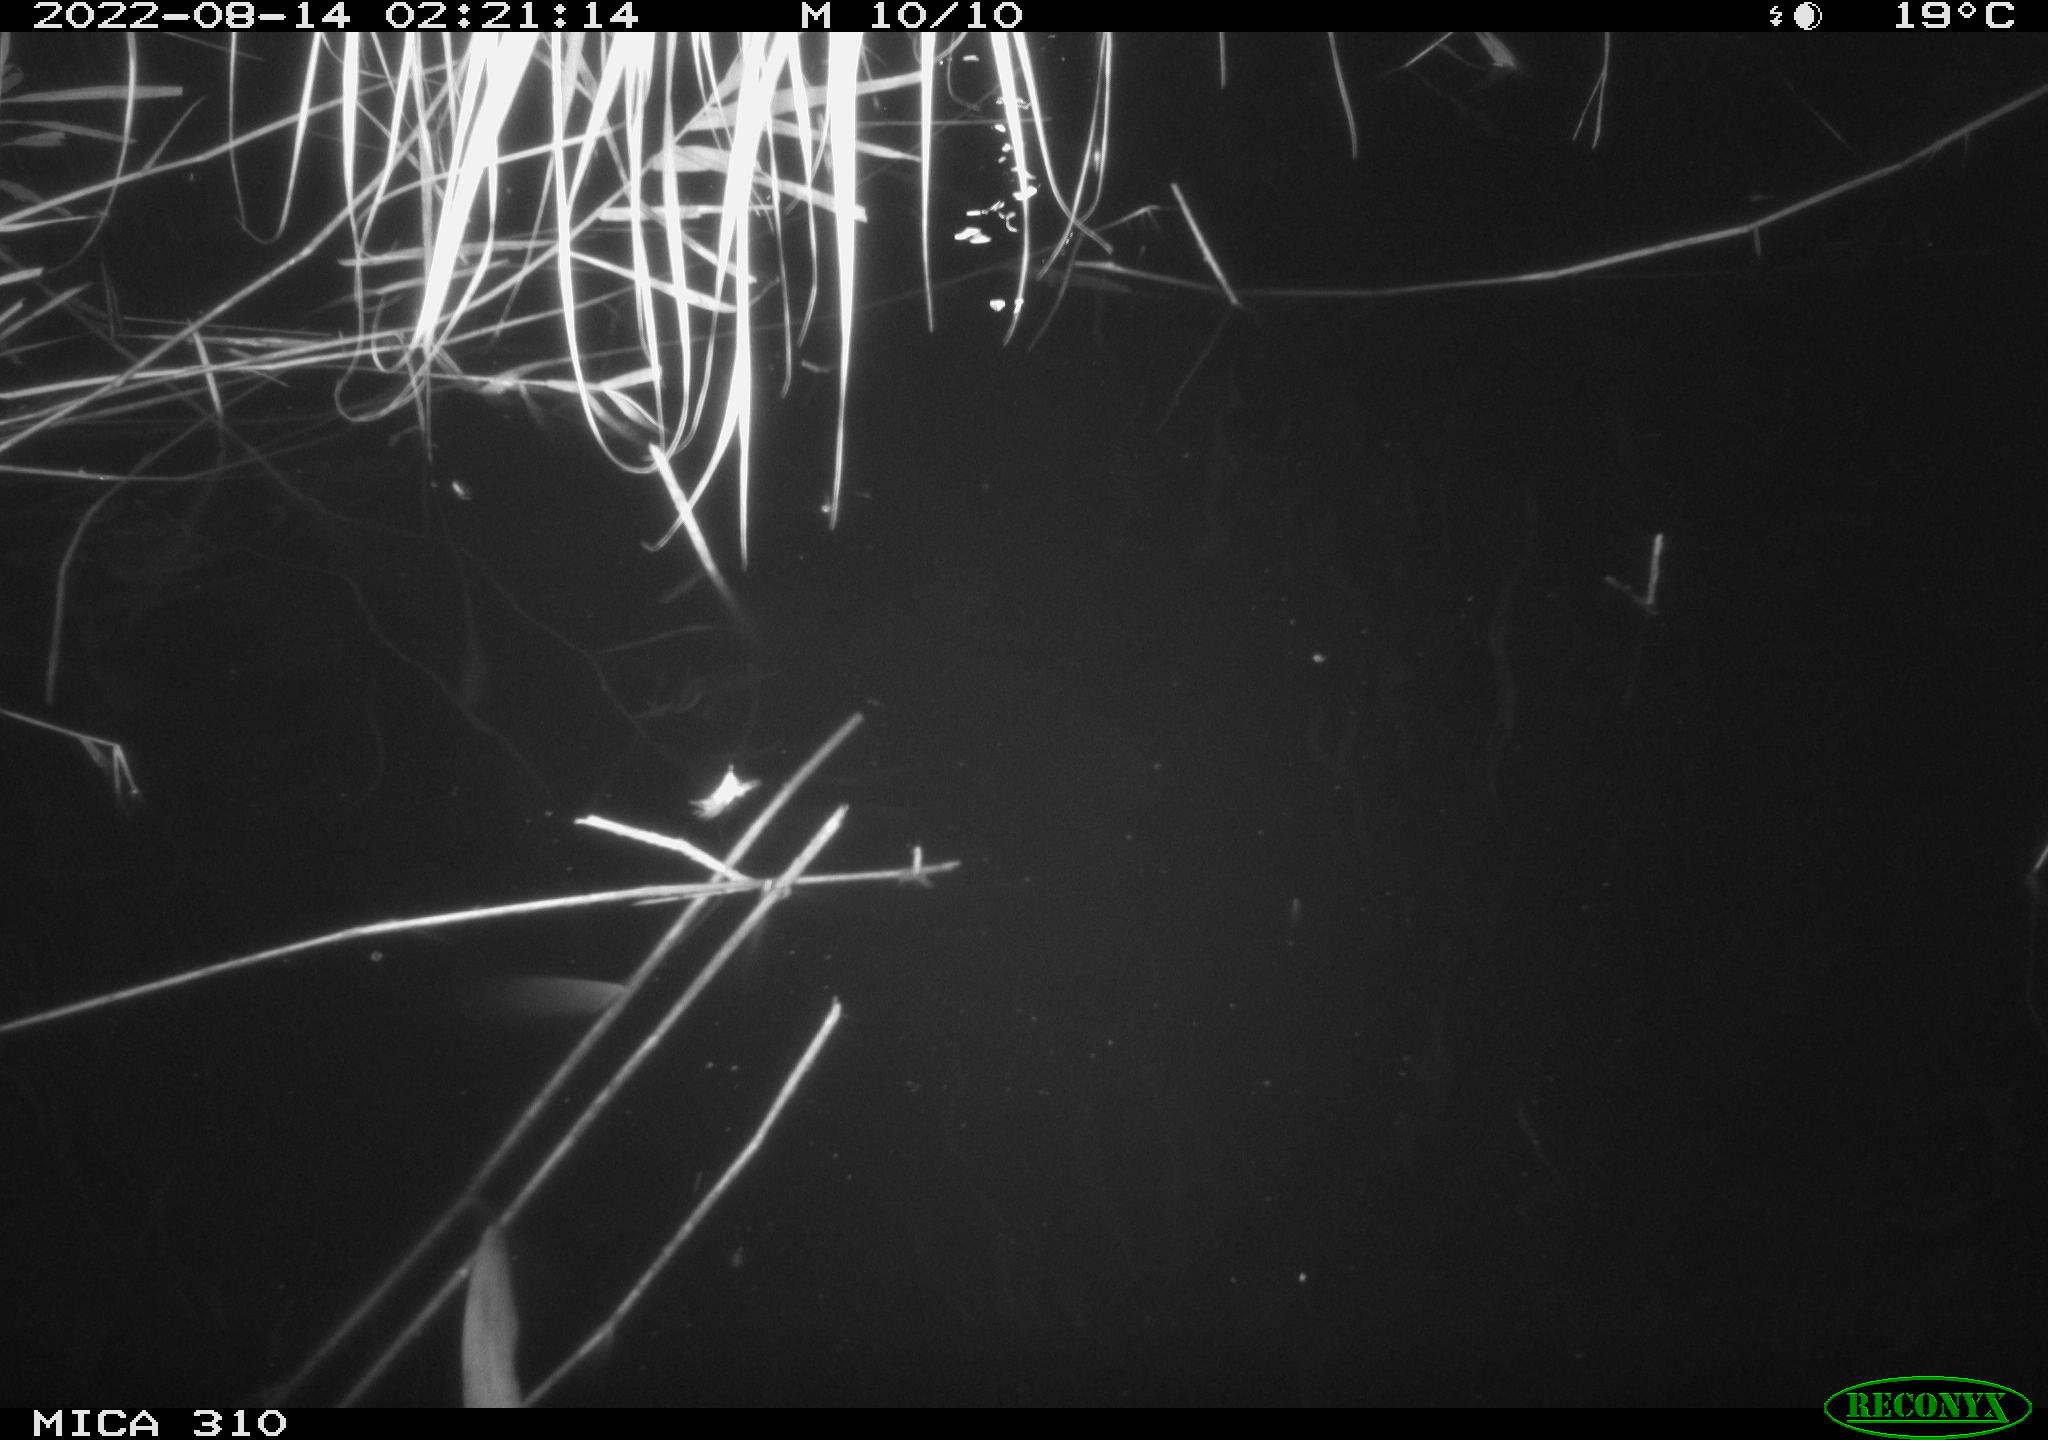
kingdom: Animalia
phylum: Chordata
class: Mammalia
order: Rodentia
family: Cricetidae
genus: Ondatra
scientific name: Ondatra zibethicus
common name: Muskrat
